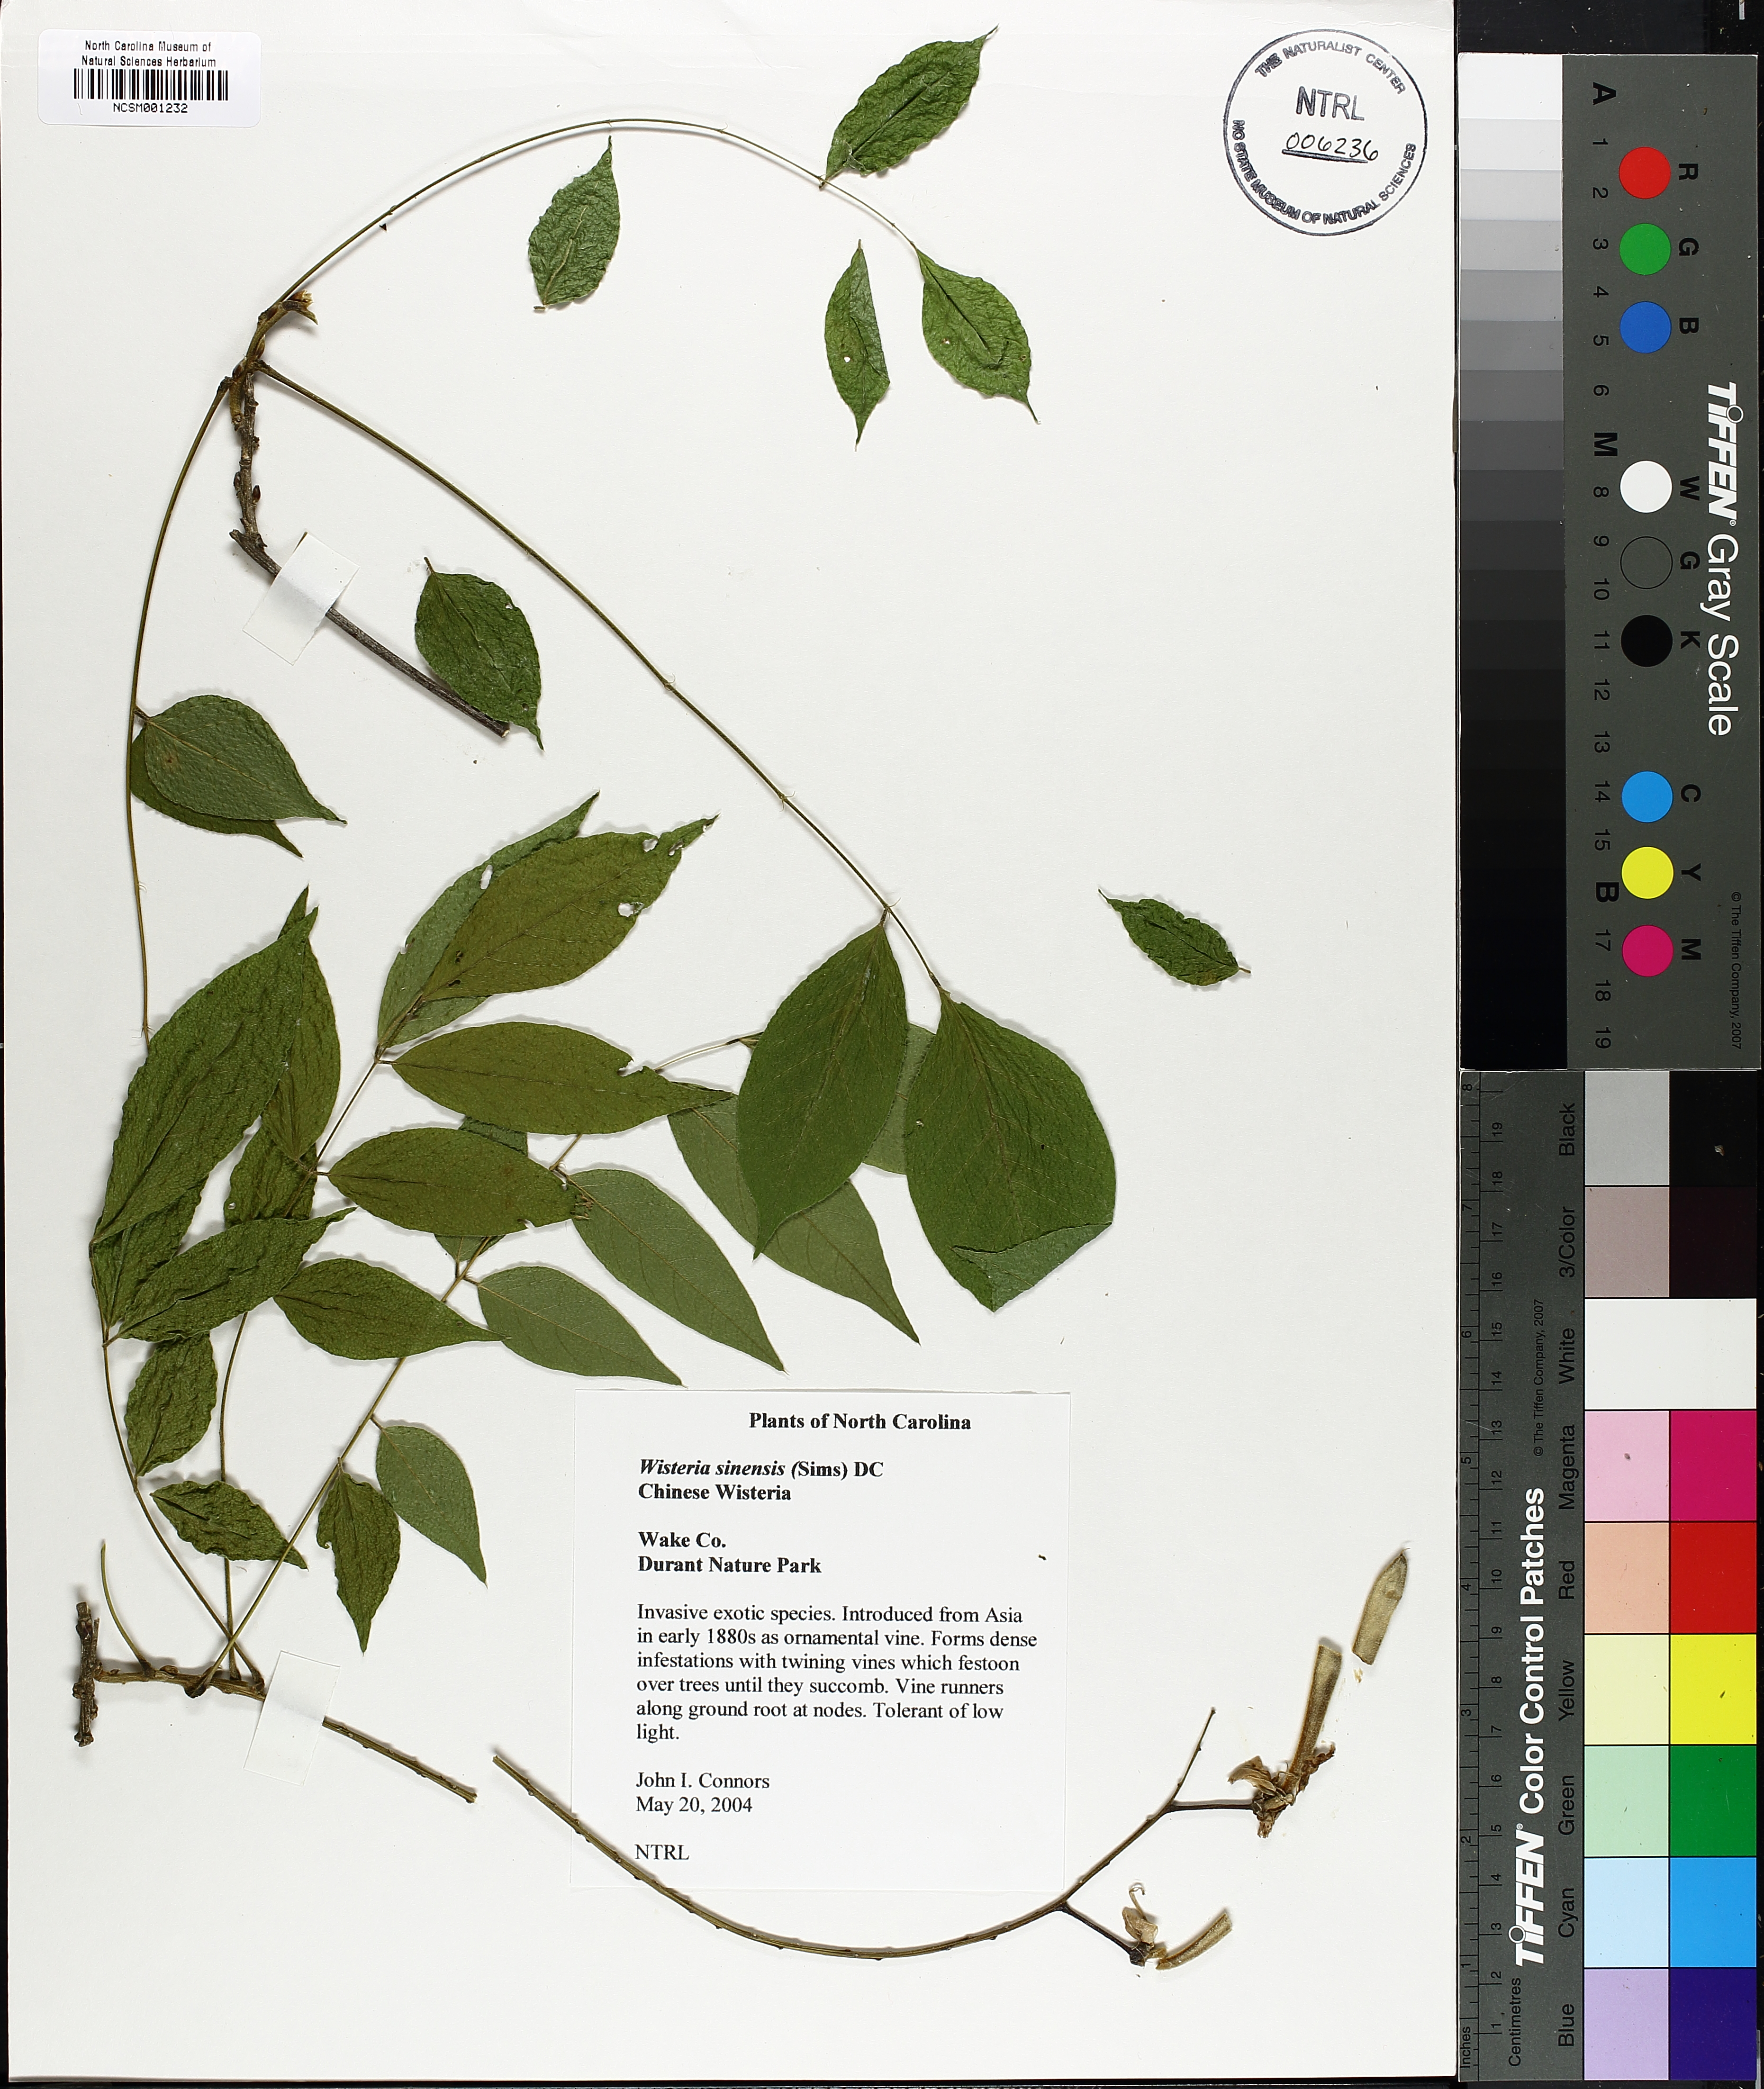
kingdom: Plantae
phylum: Tracheophyta
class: Magnoliopsida
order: Fabales
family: Fabaceae
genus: Wisteria
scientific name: Wisteria sinensis
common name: Chinese wisteria
